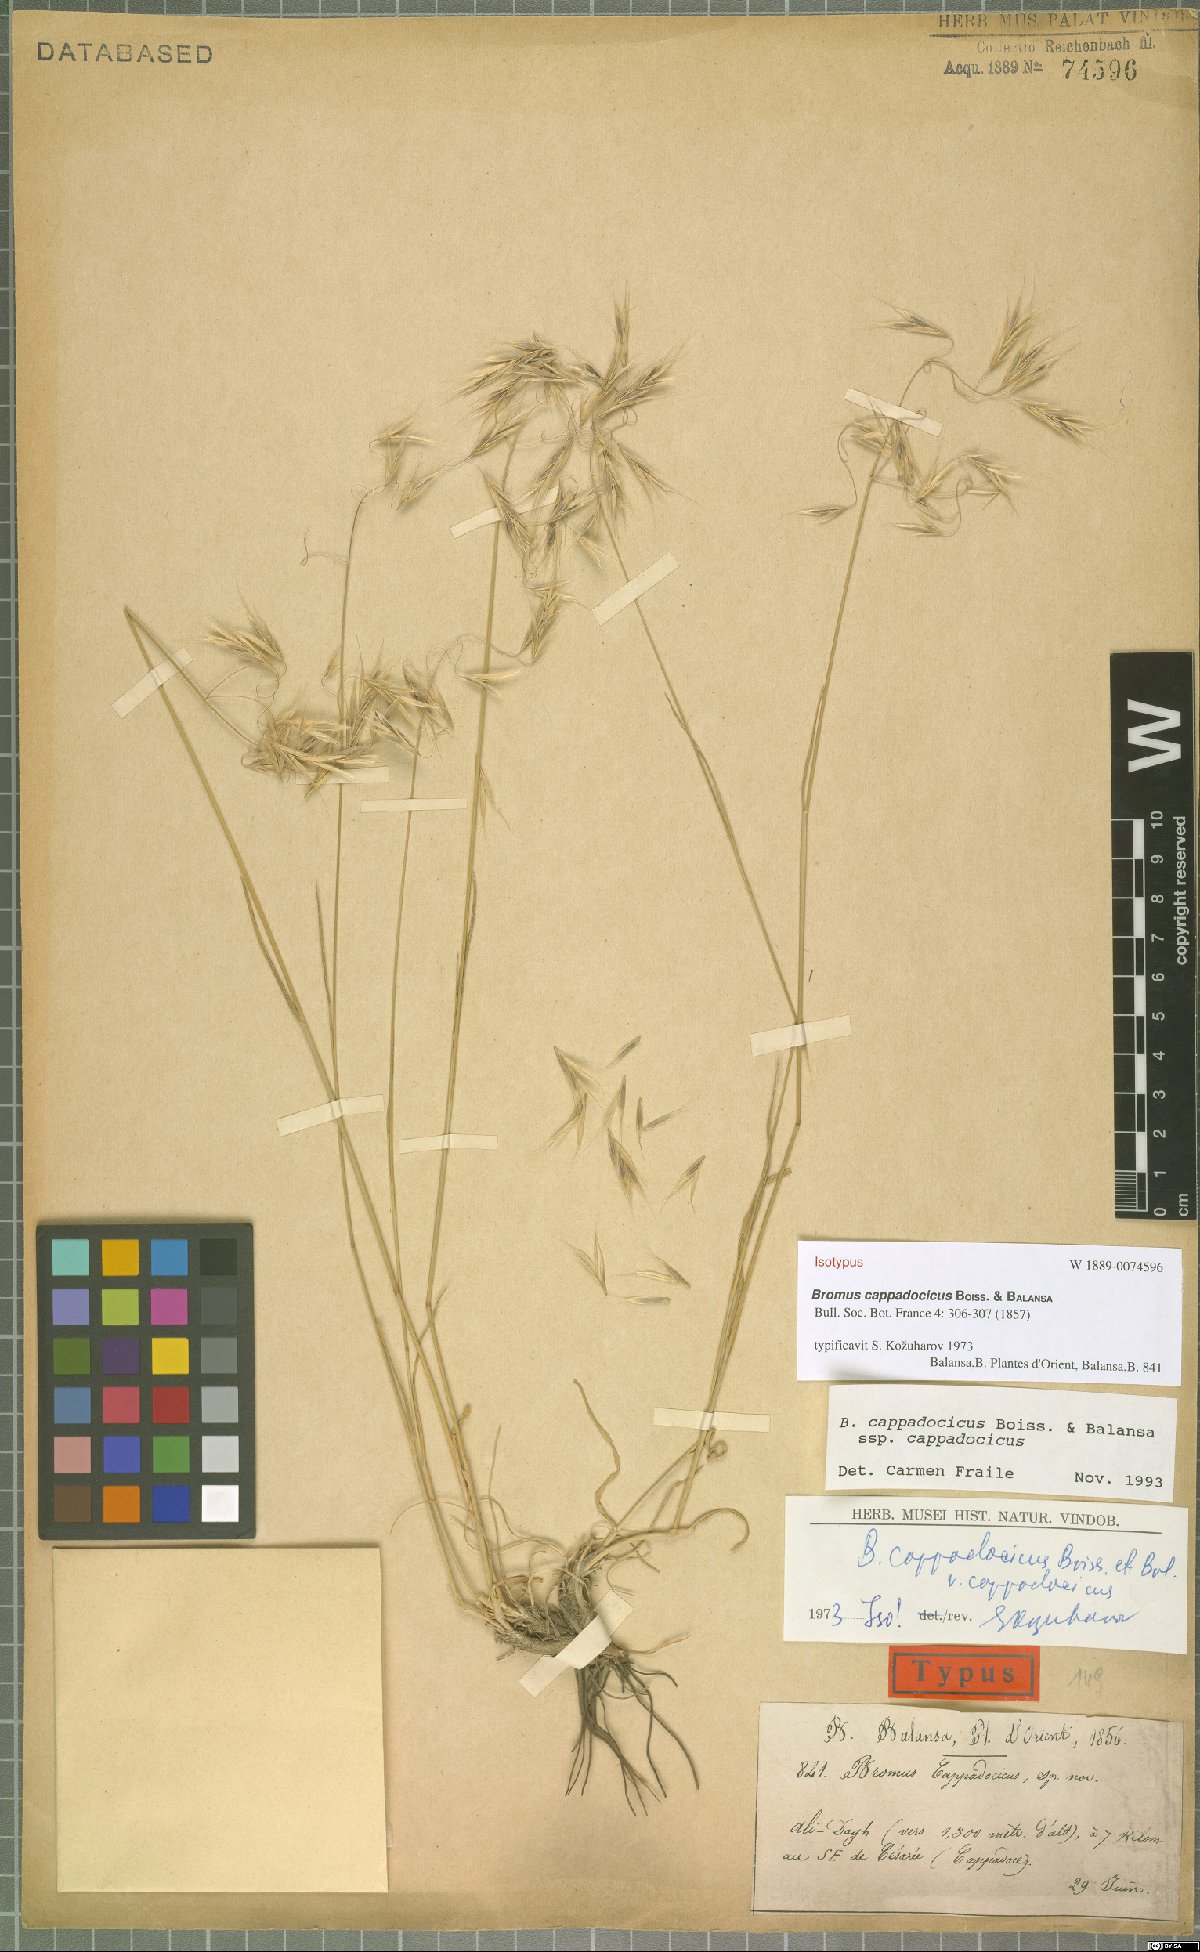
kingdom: Plantae
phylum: Tracheophyta
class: Liliopsida
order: Poales
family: Poaceae
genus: Bromus
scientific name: Bromus sclerophyllus
